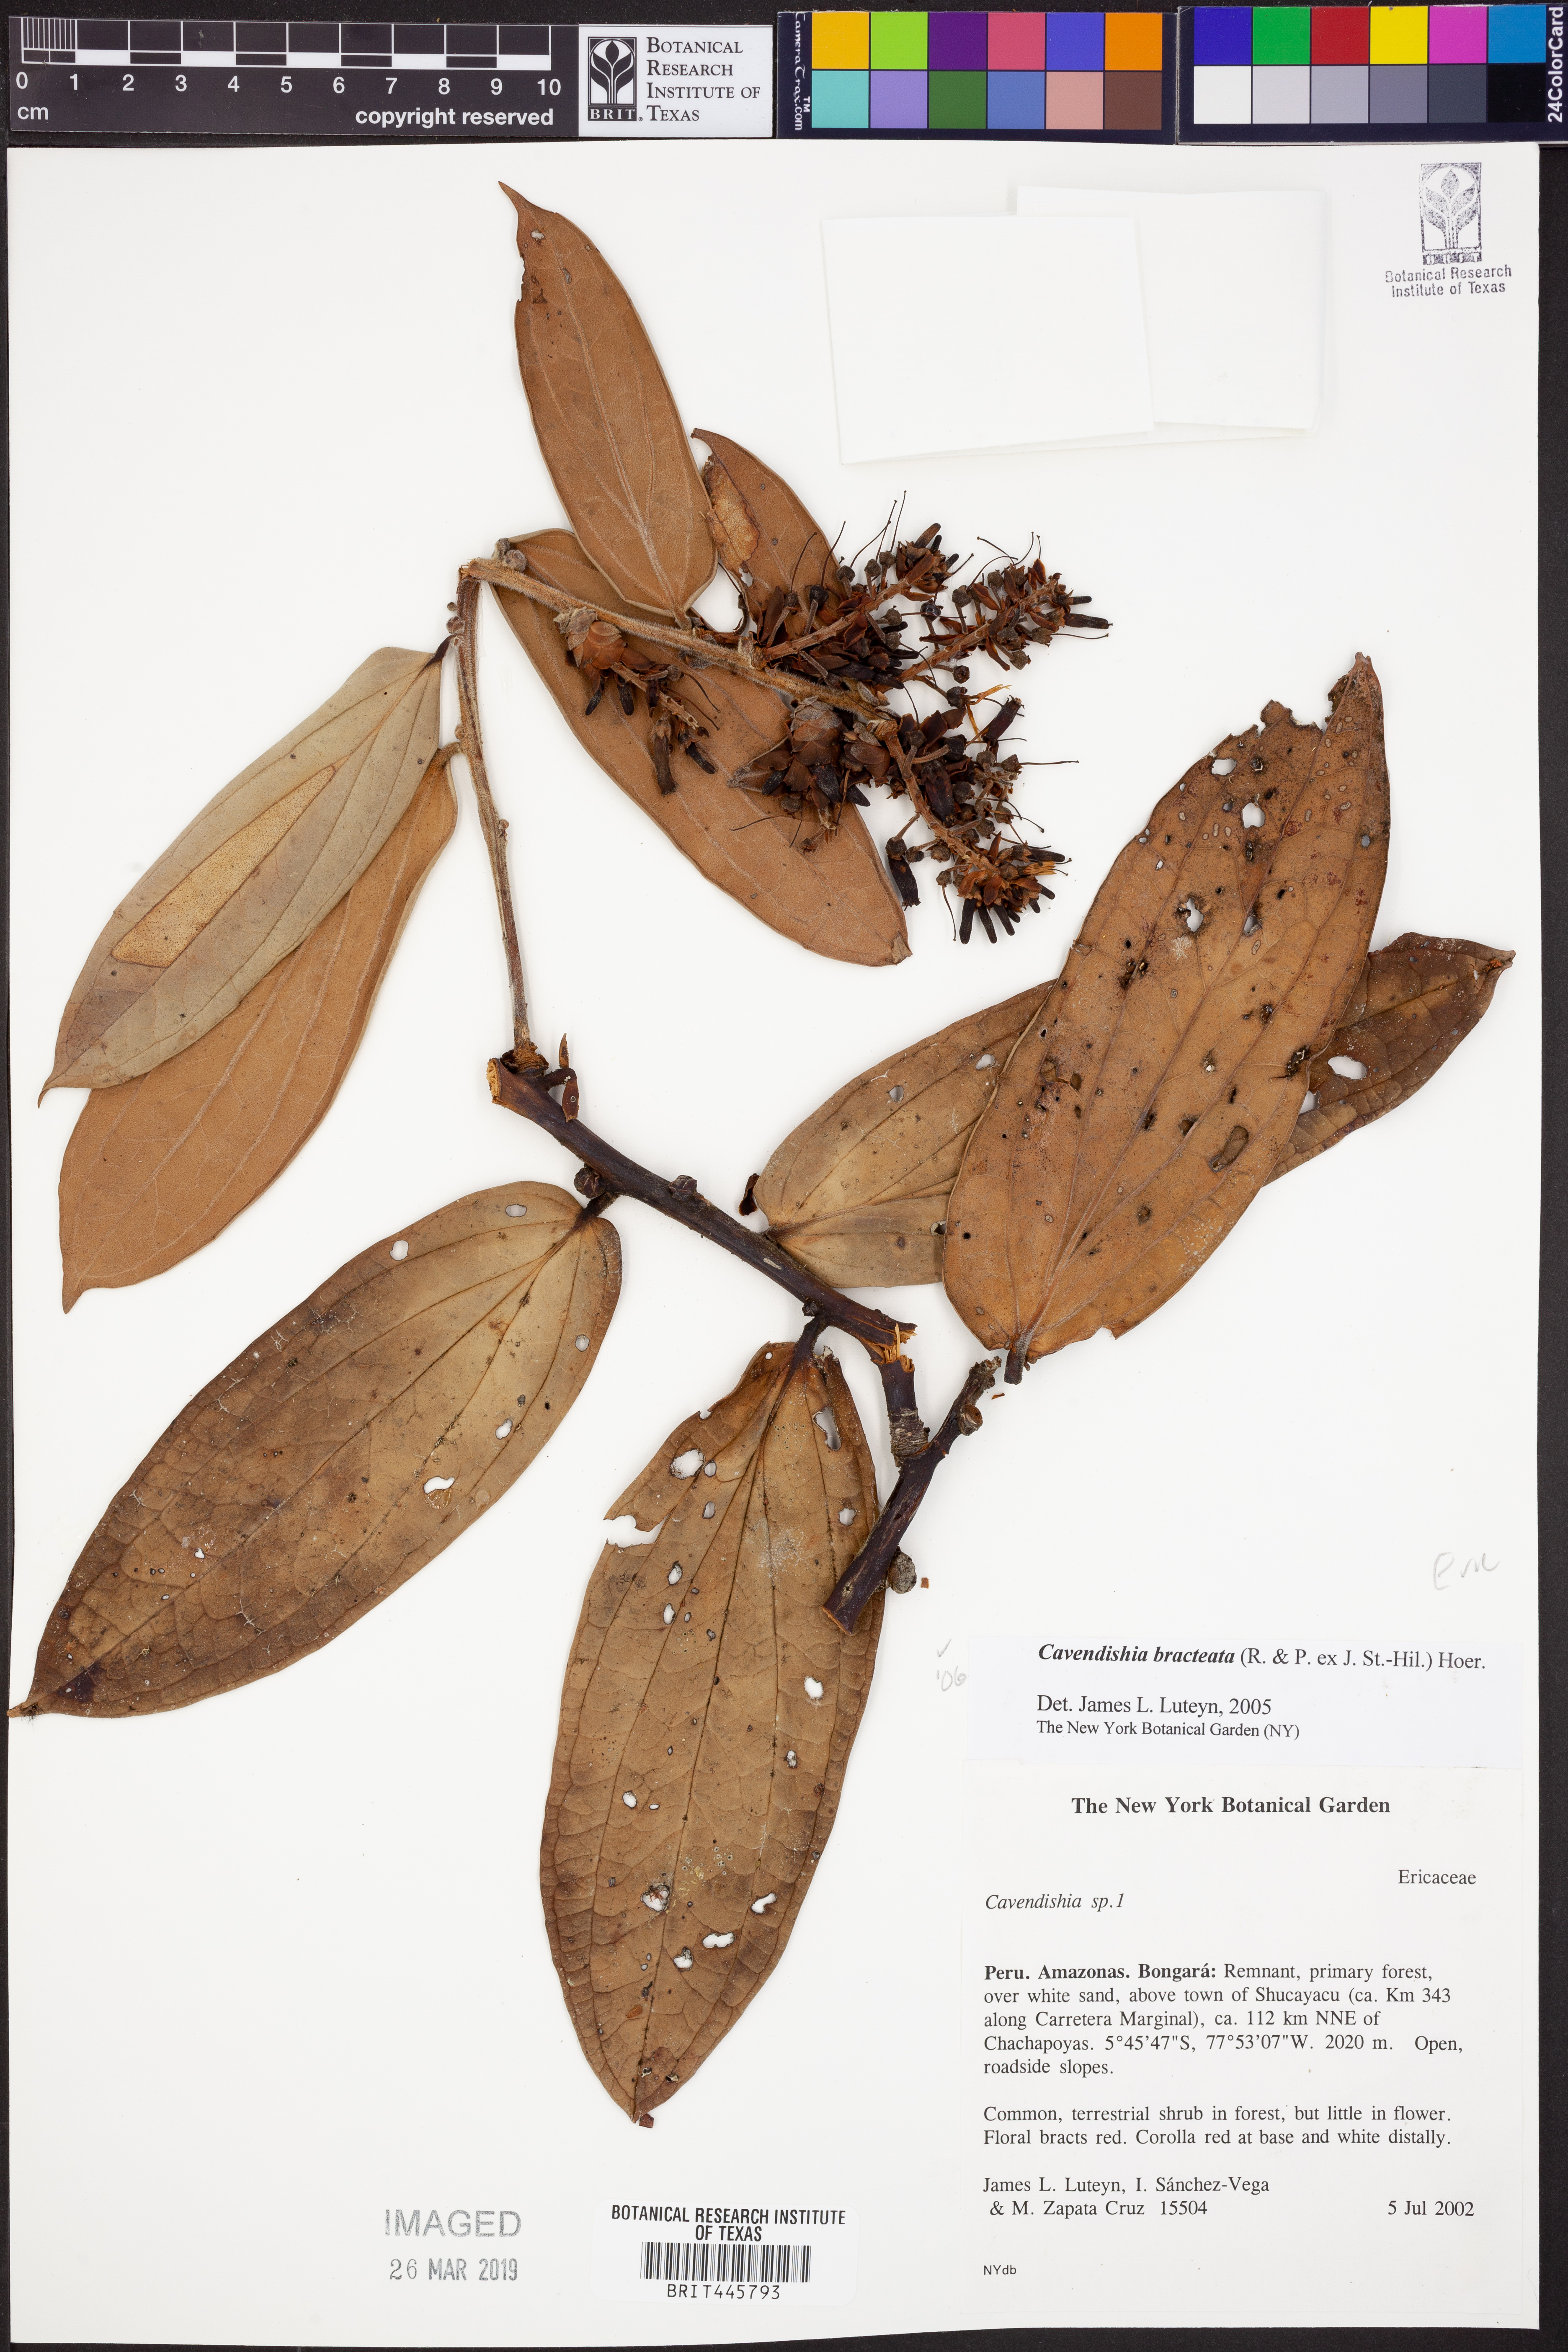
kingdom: Plantae
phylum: Tracheophyta
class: Magnoliopsida
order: Ericales
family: Ericaceae
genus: Cavendishia
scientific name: Cavendishia bracteata
